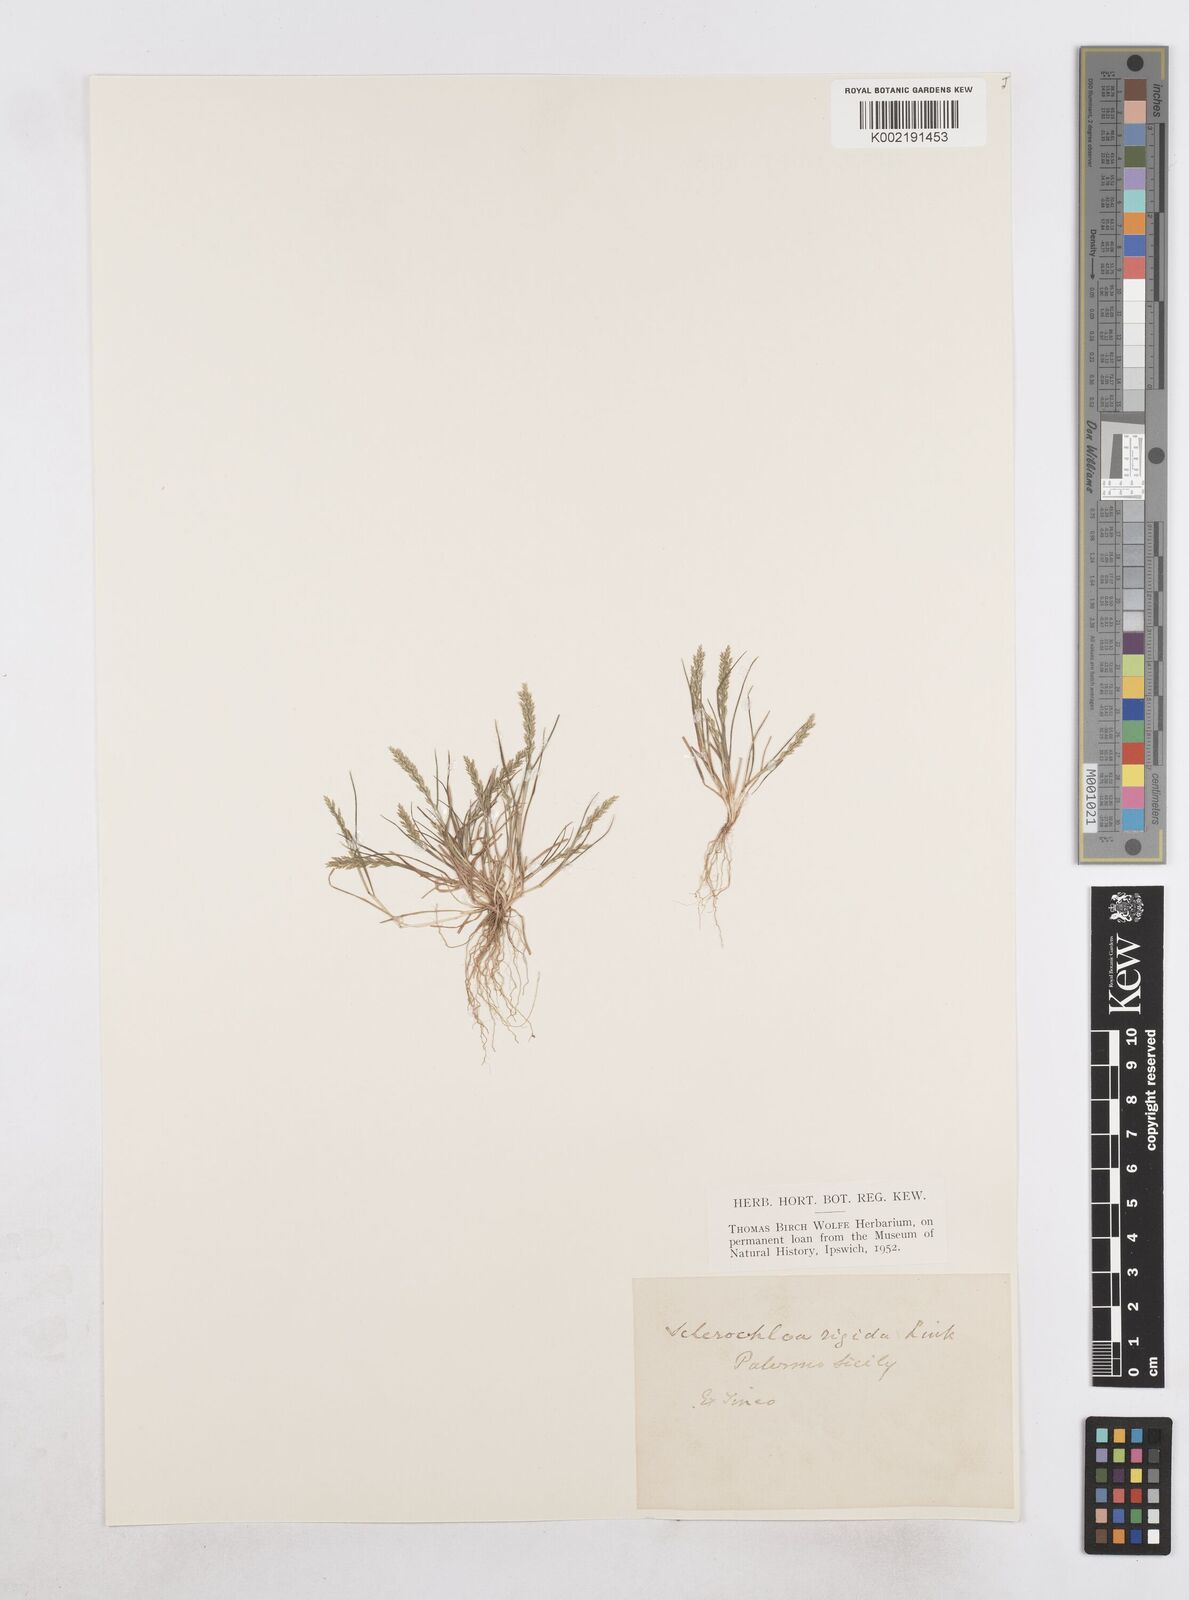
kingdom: Plantae
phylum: Tracheophyta
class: Liliopsida
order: Poales
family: Poaceae
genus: Catapodium
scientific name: Catapodium rigidum
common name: Fern-grass
